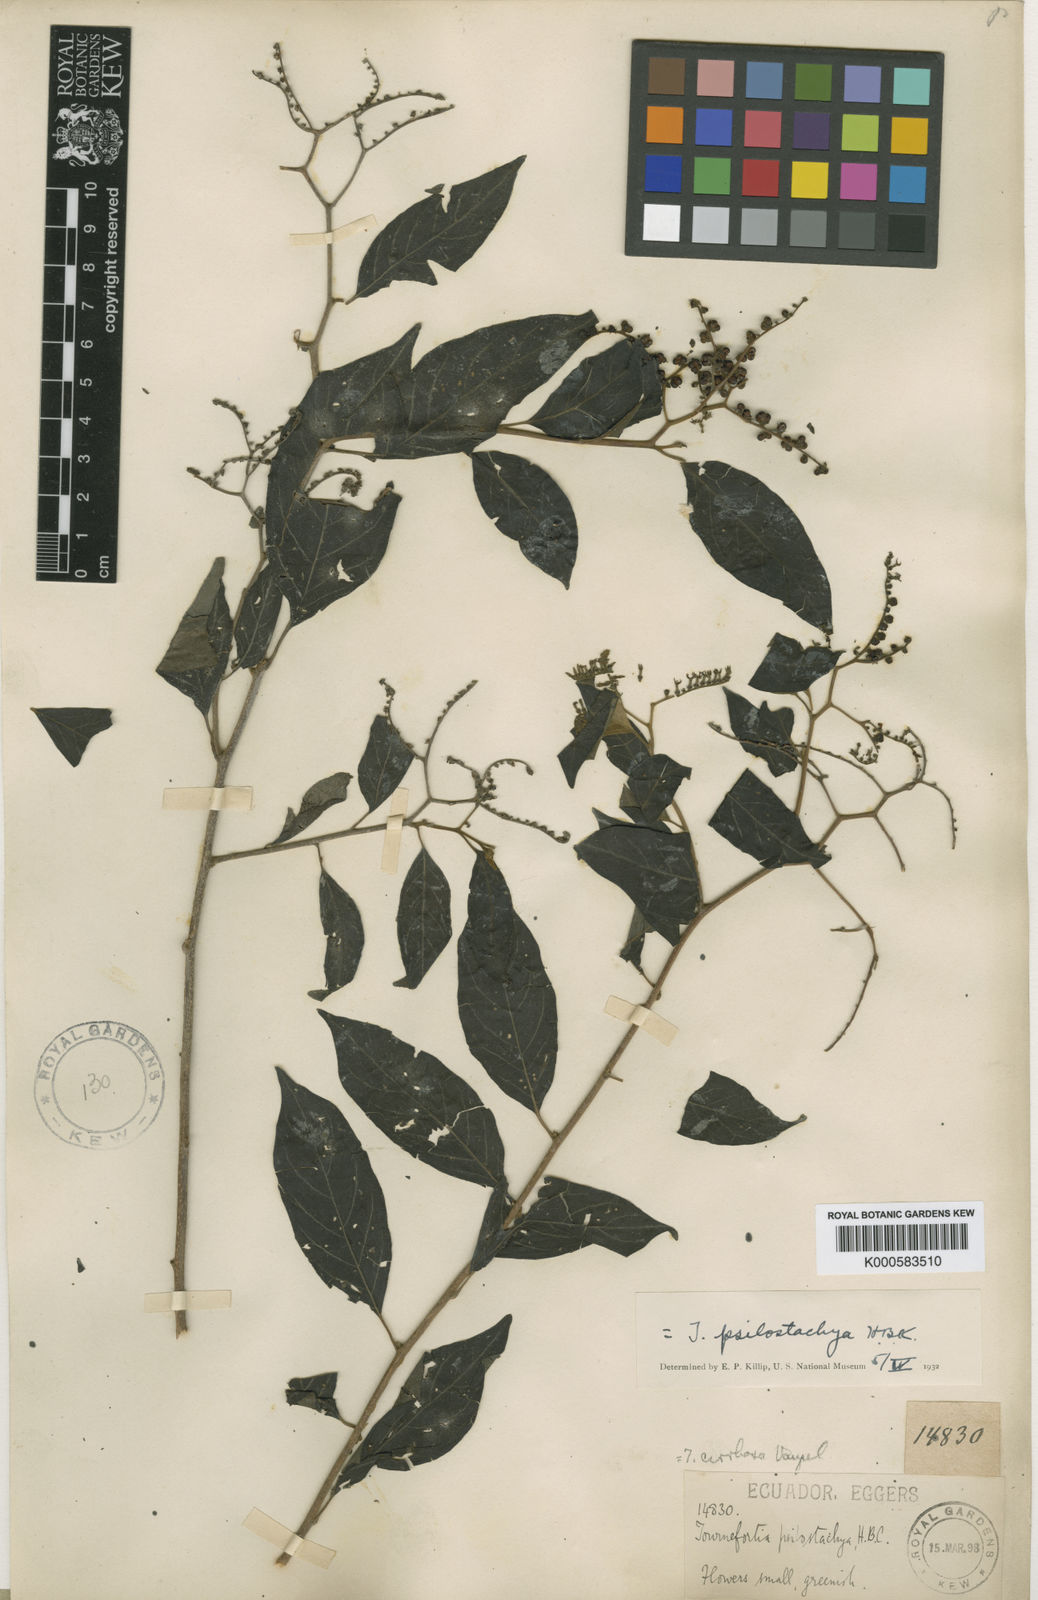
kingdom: Plantae
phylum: Tracheophyta
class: Magnoliopsida
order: Boraginales
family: Heliotropiaceae
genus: Myriopus
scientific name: Myriopus psilostachya
